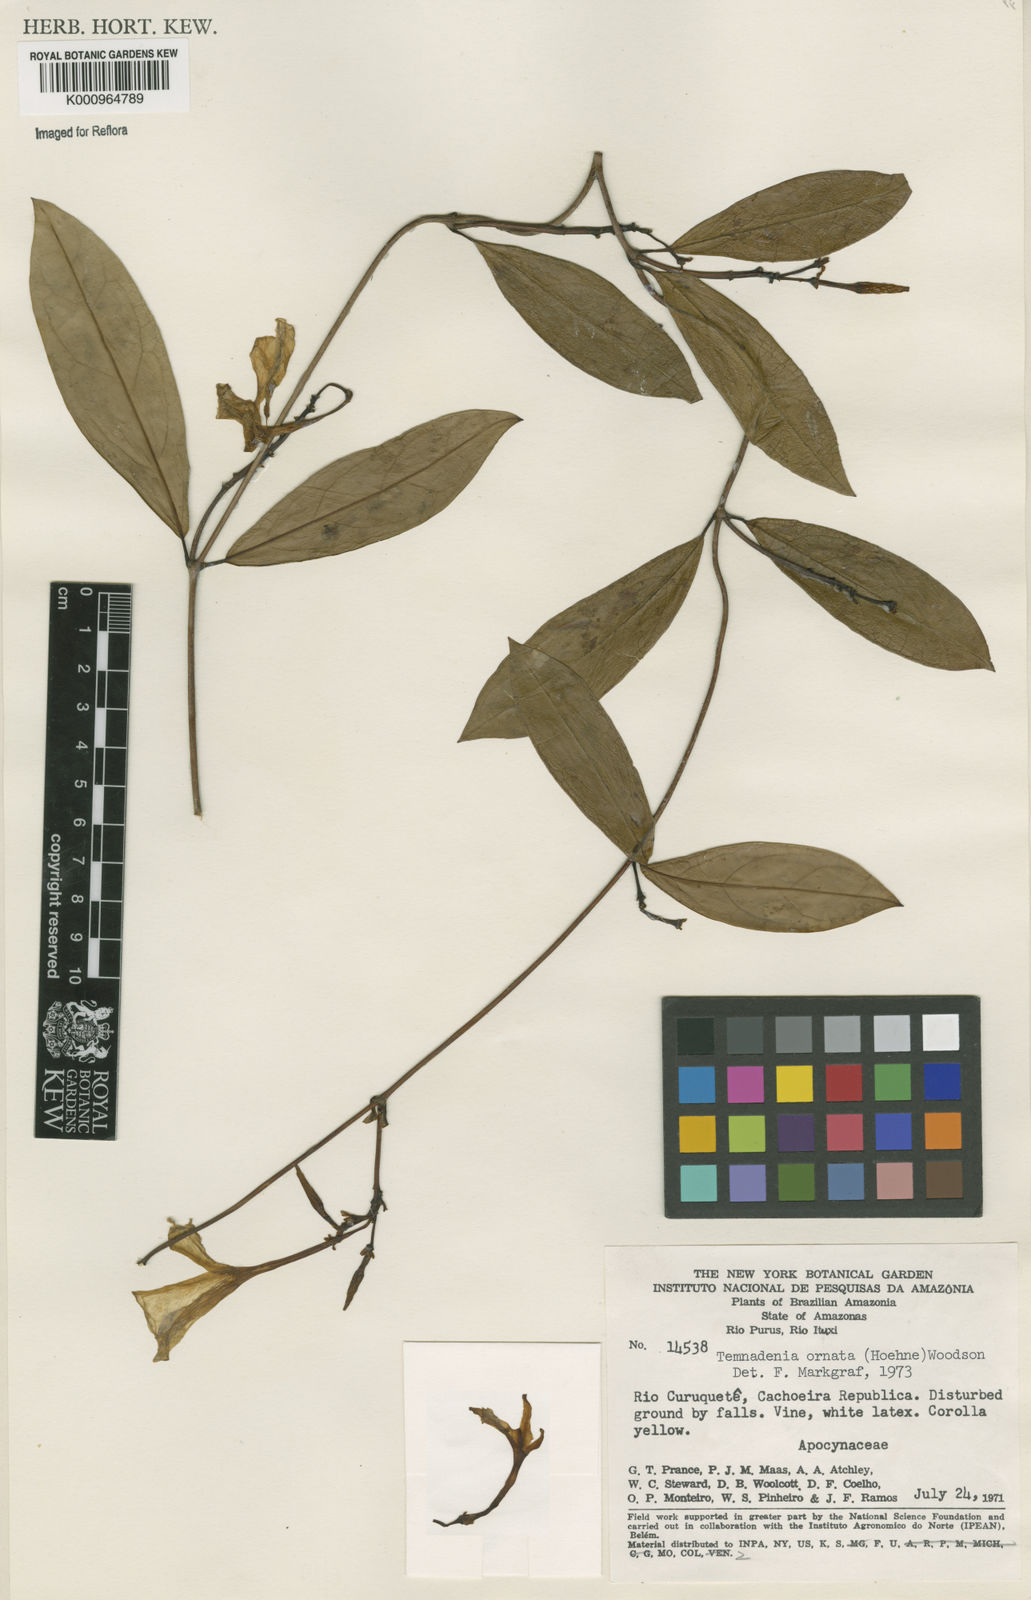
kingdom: Plantae
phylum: Tracheophyta
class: Magnoliopsida
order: Gentianales
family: Apocynaceae
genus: Prestonia
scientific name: Prestonia ornata
